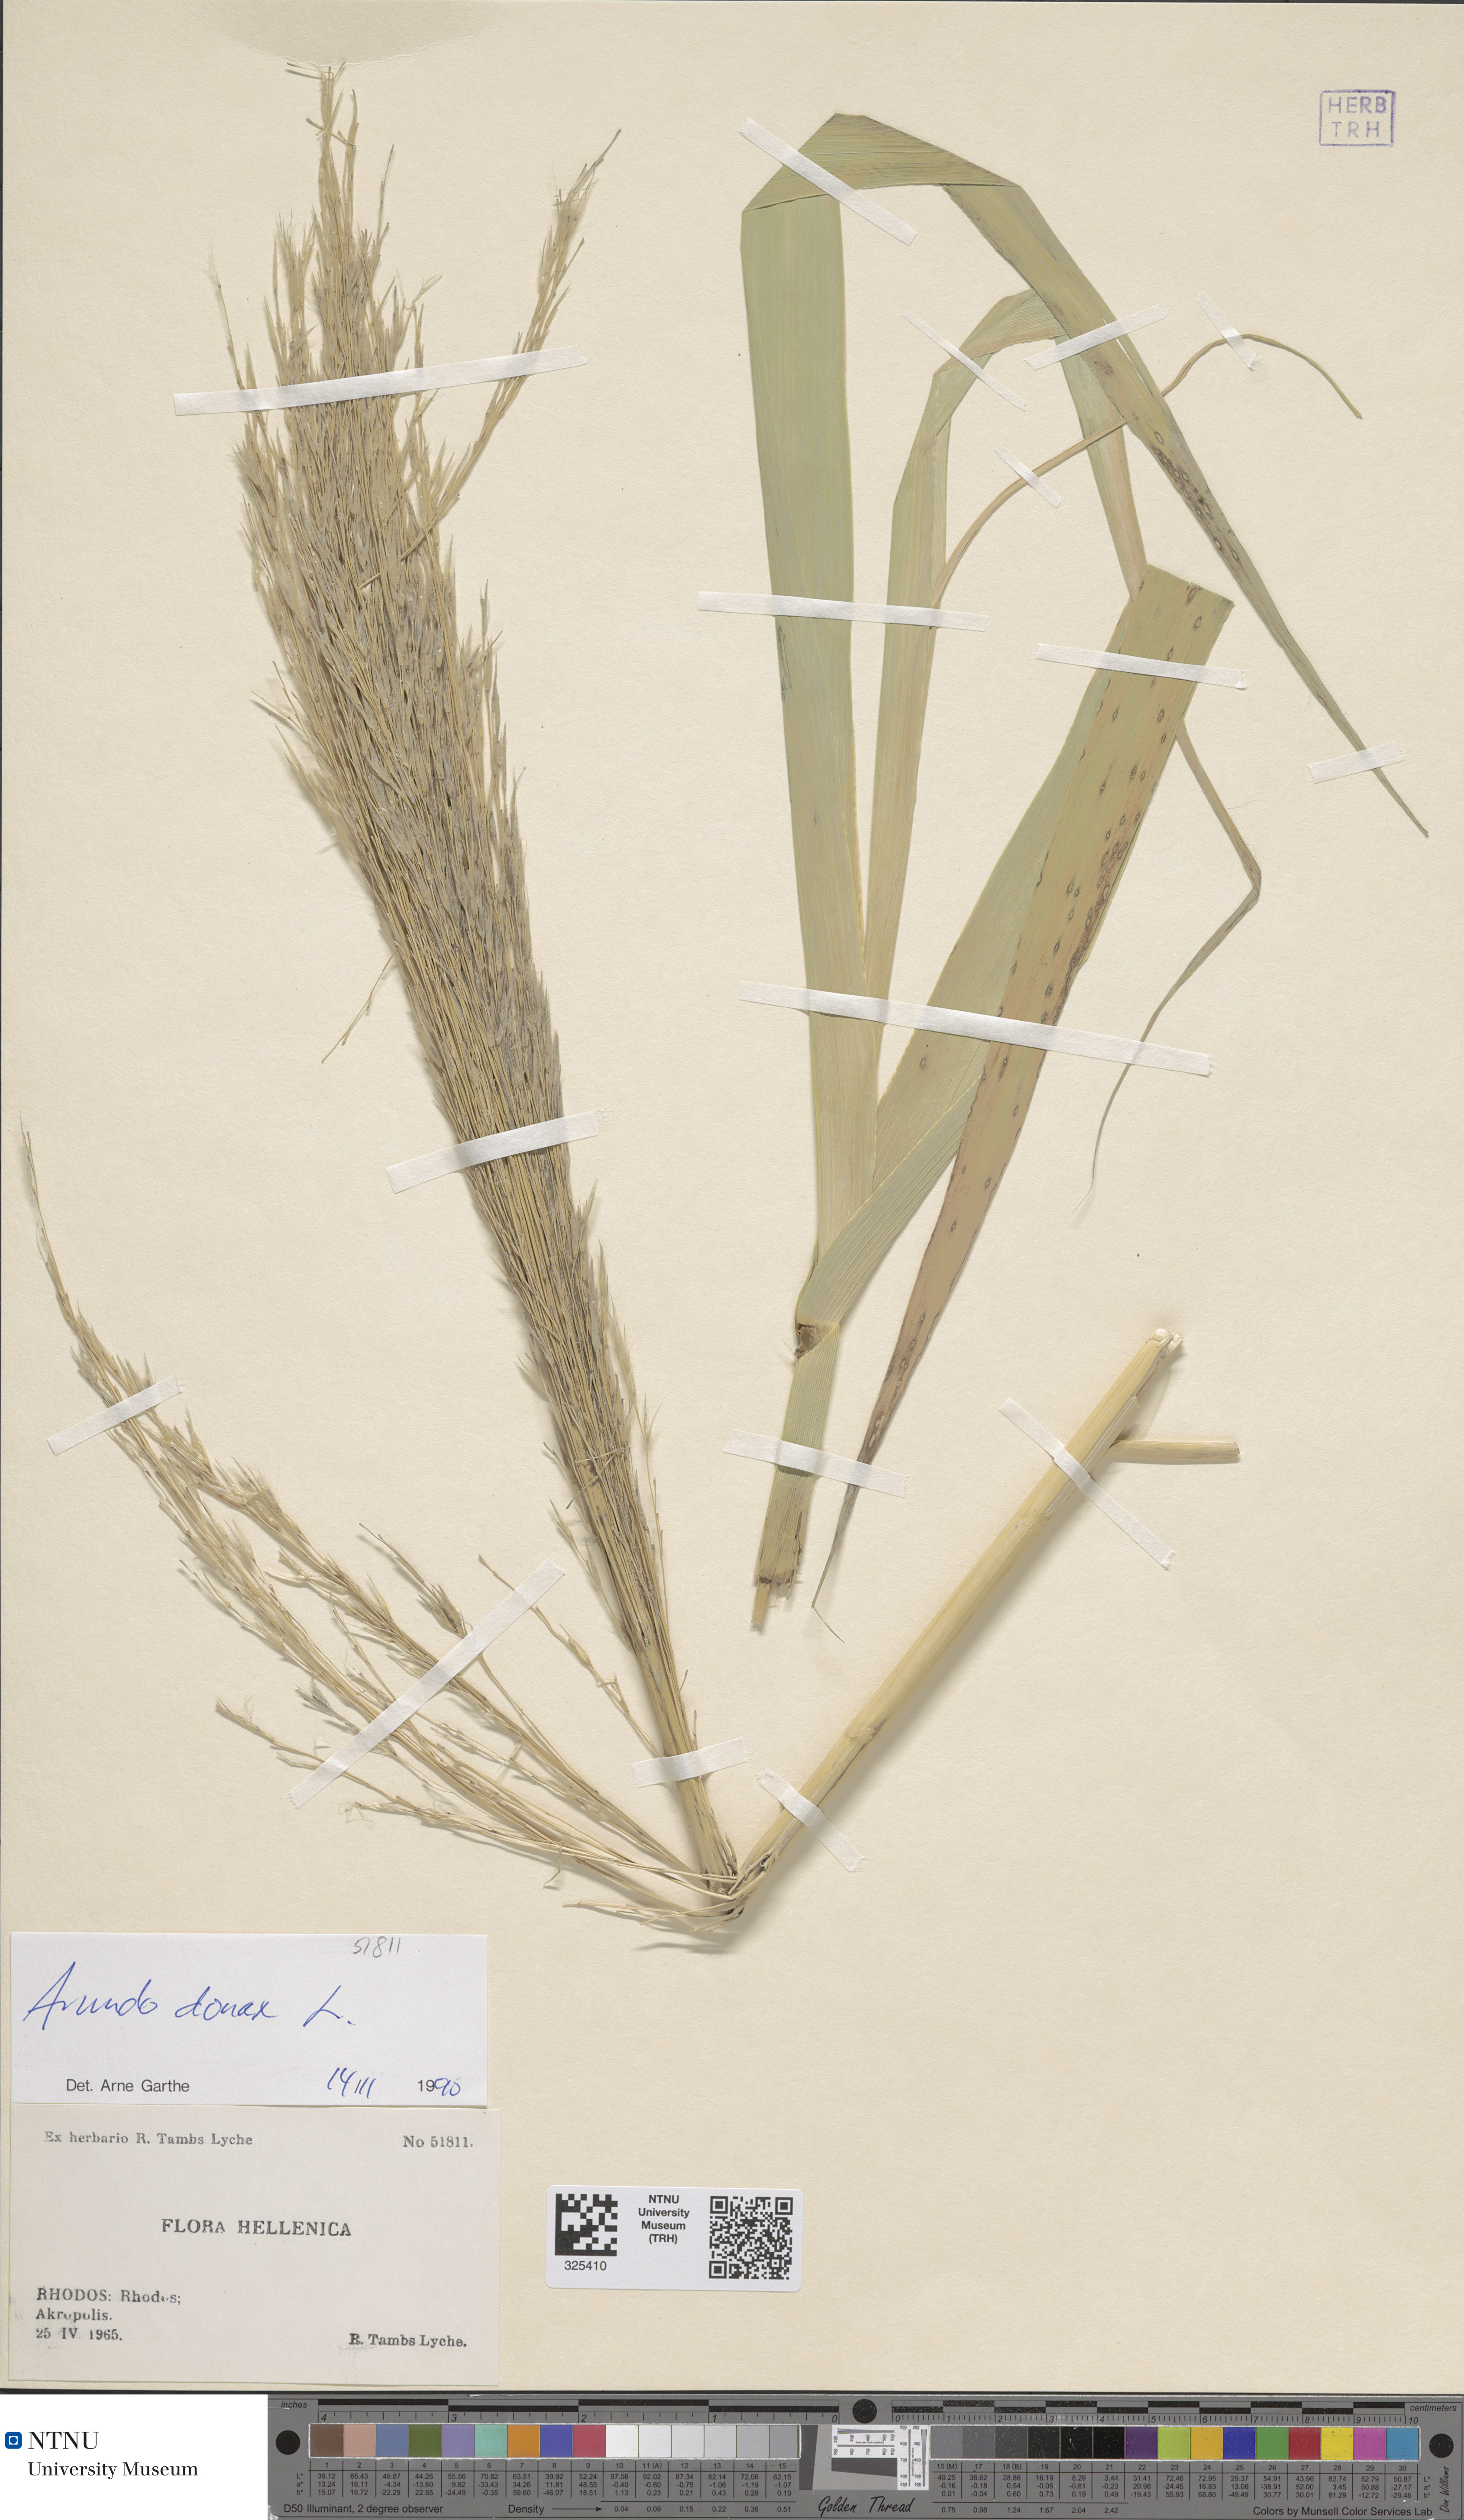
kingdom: Plantae
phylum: Tracheophyta
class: Liliopsida
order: Poales
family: Poaceae
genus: Arundo
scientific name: Arundo donax
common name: Giant reed
